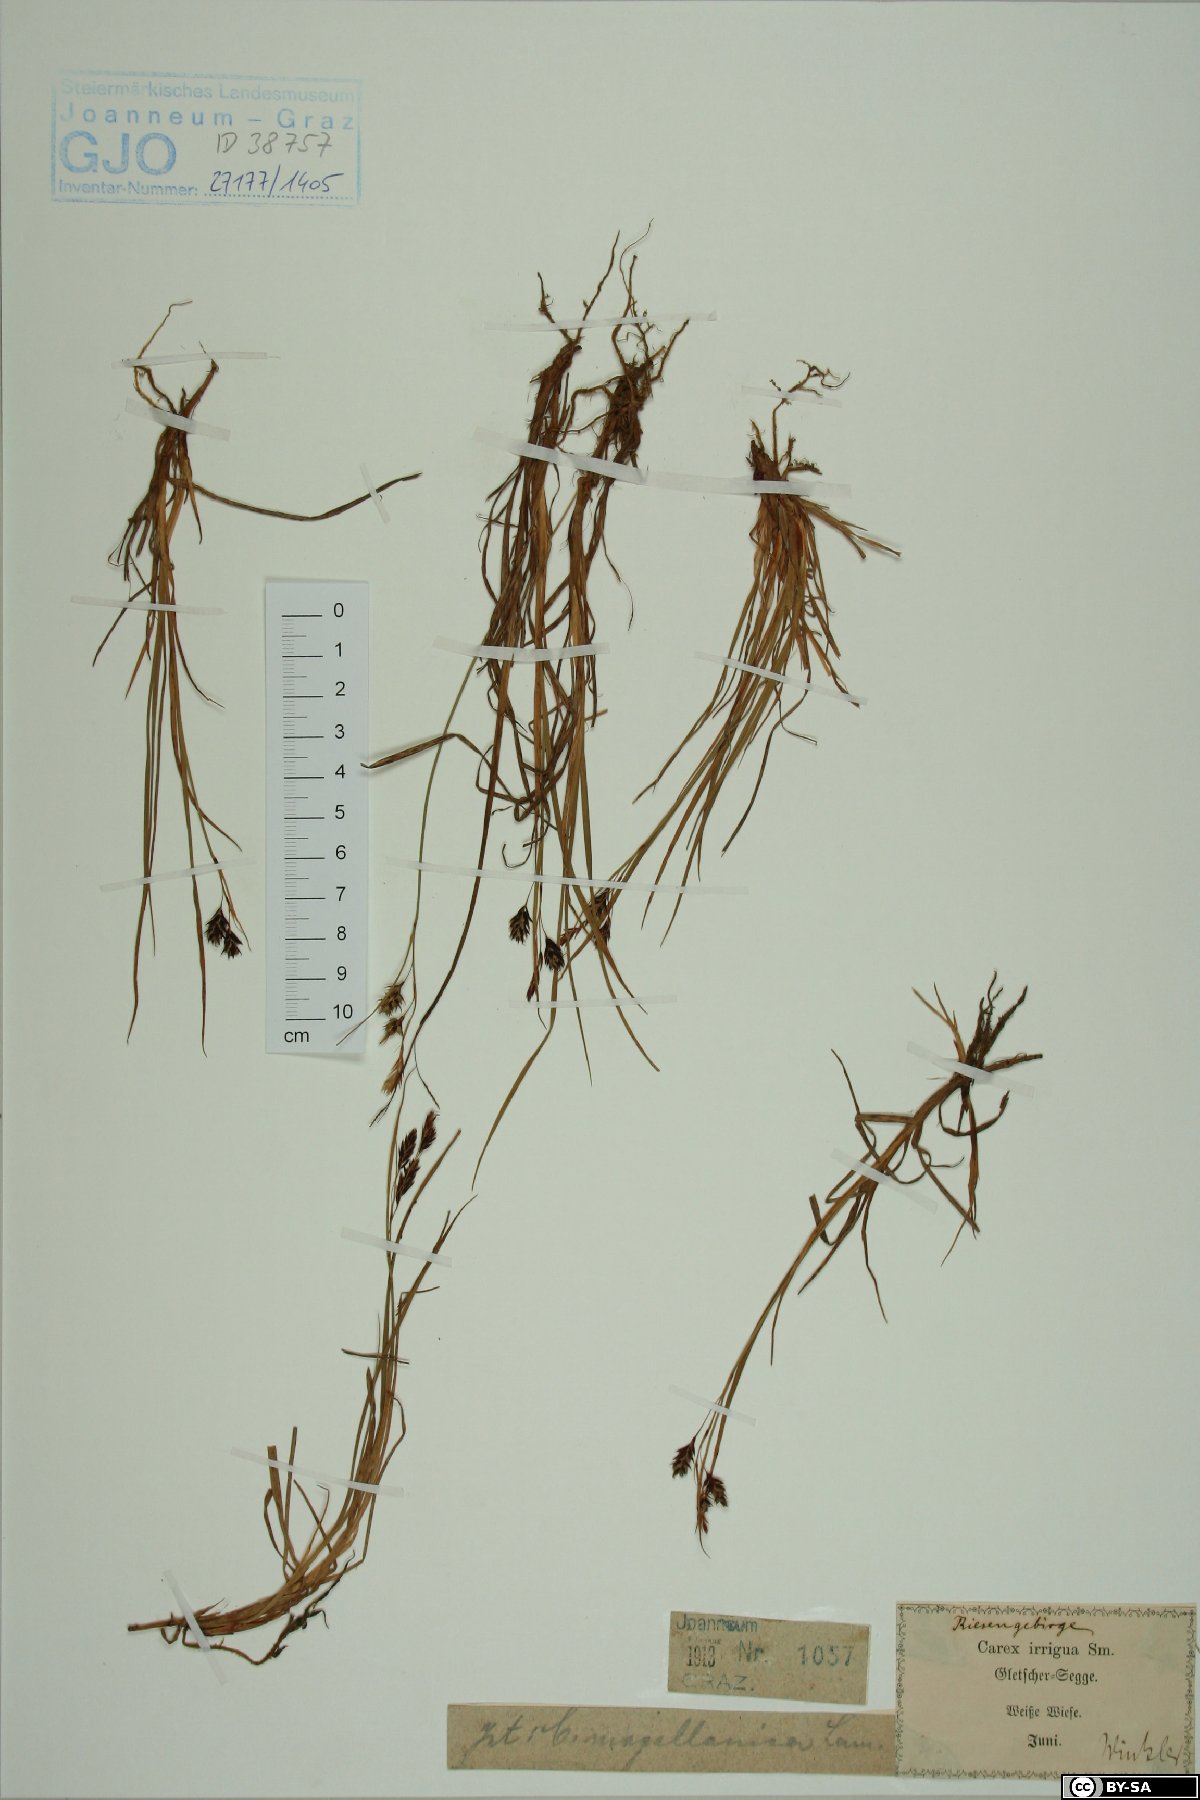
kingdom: Plantae
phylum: Tracheophyta
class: Liliopsida
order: Poales
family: Cyperaceae
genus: Carex
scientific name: Carex magellanica
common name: Bog sedge
